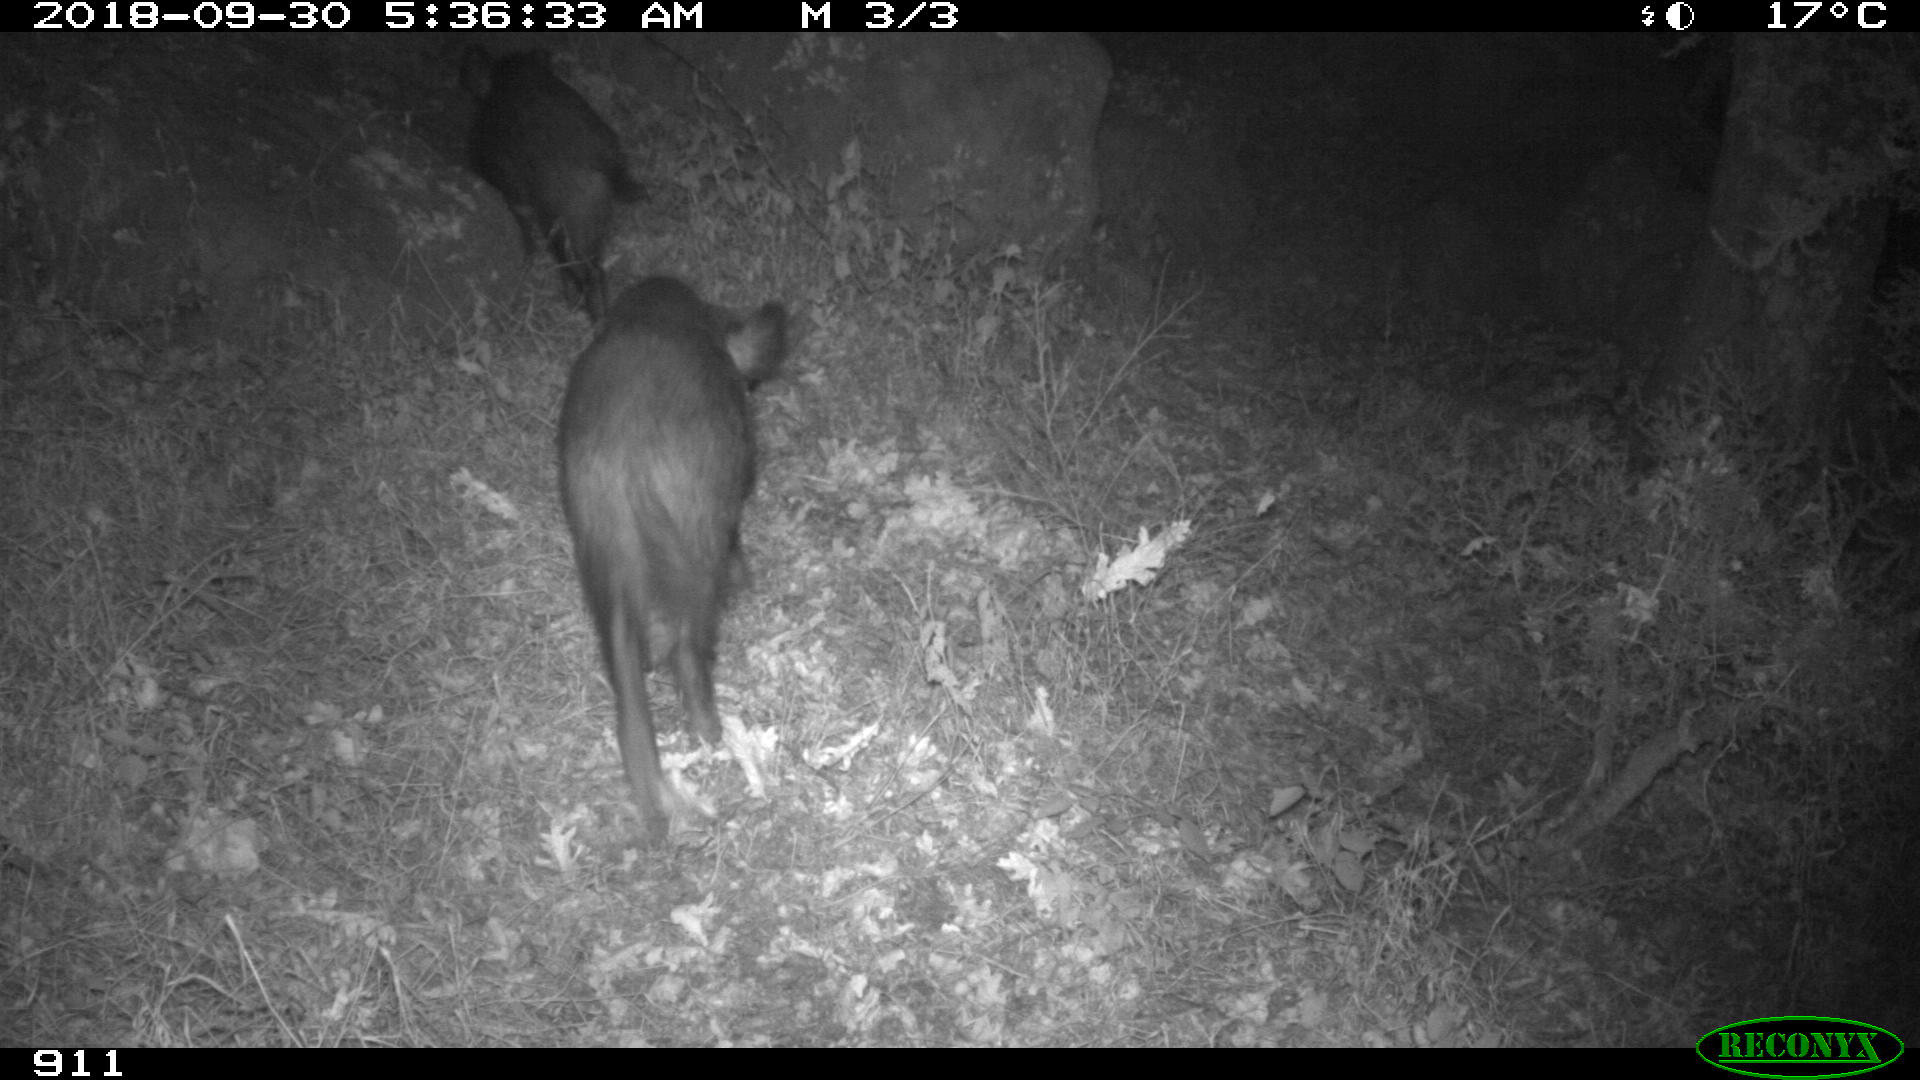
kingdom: Animalia
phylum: Chordata
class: Mammalia
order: Artiodactyla
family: Suidae
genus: Sus
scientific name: Sus scrofa
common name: Wild boar
